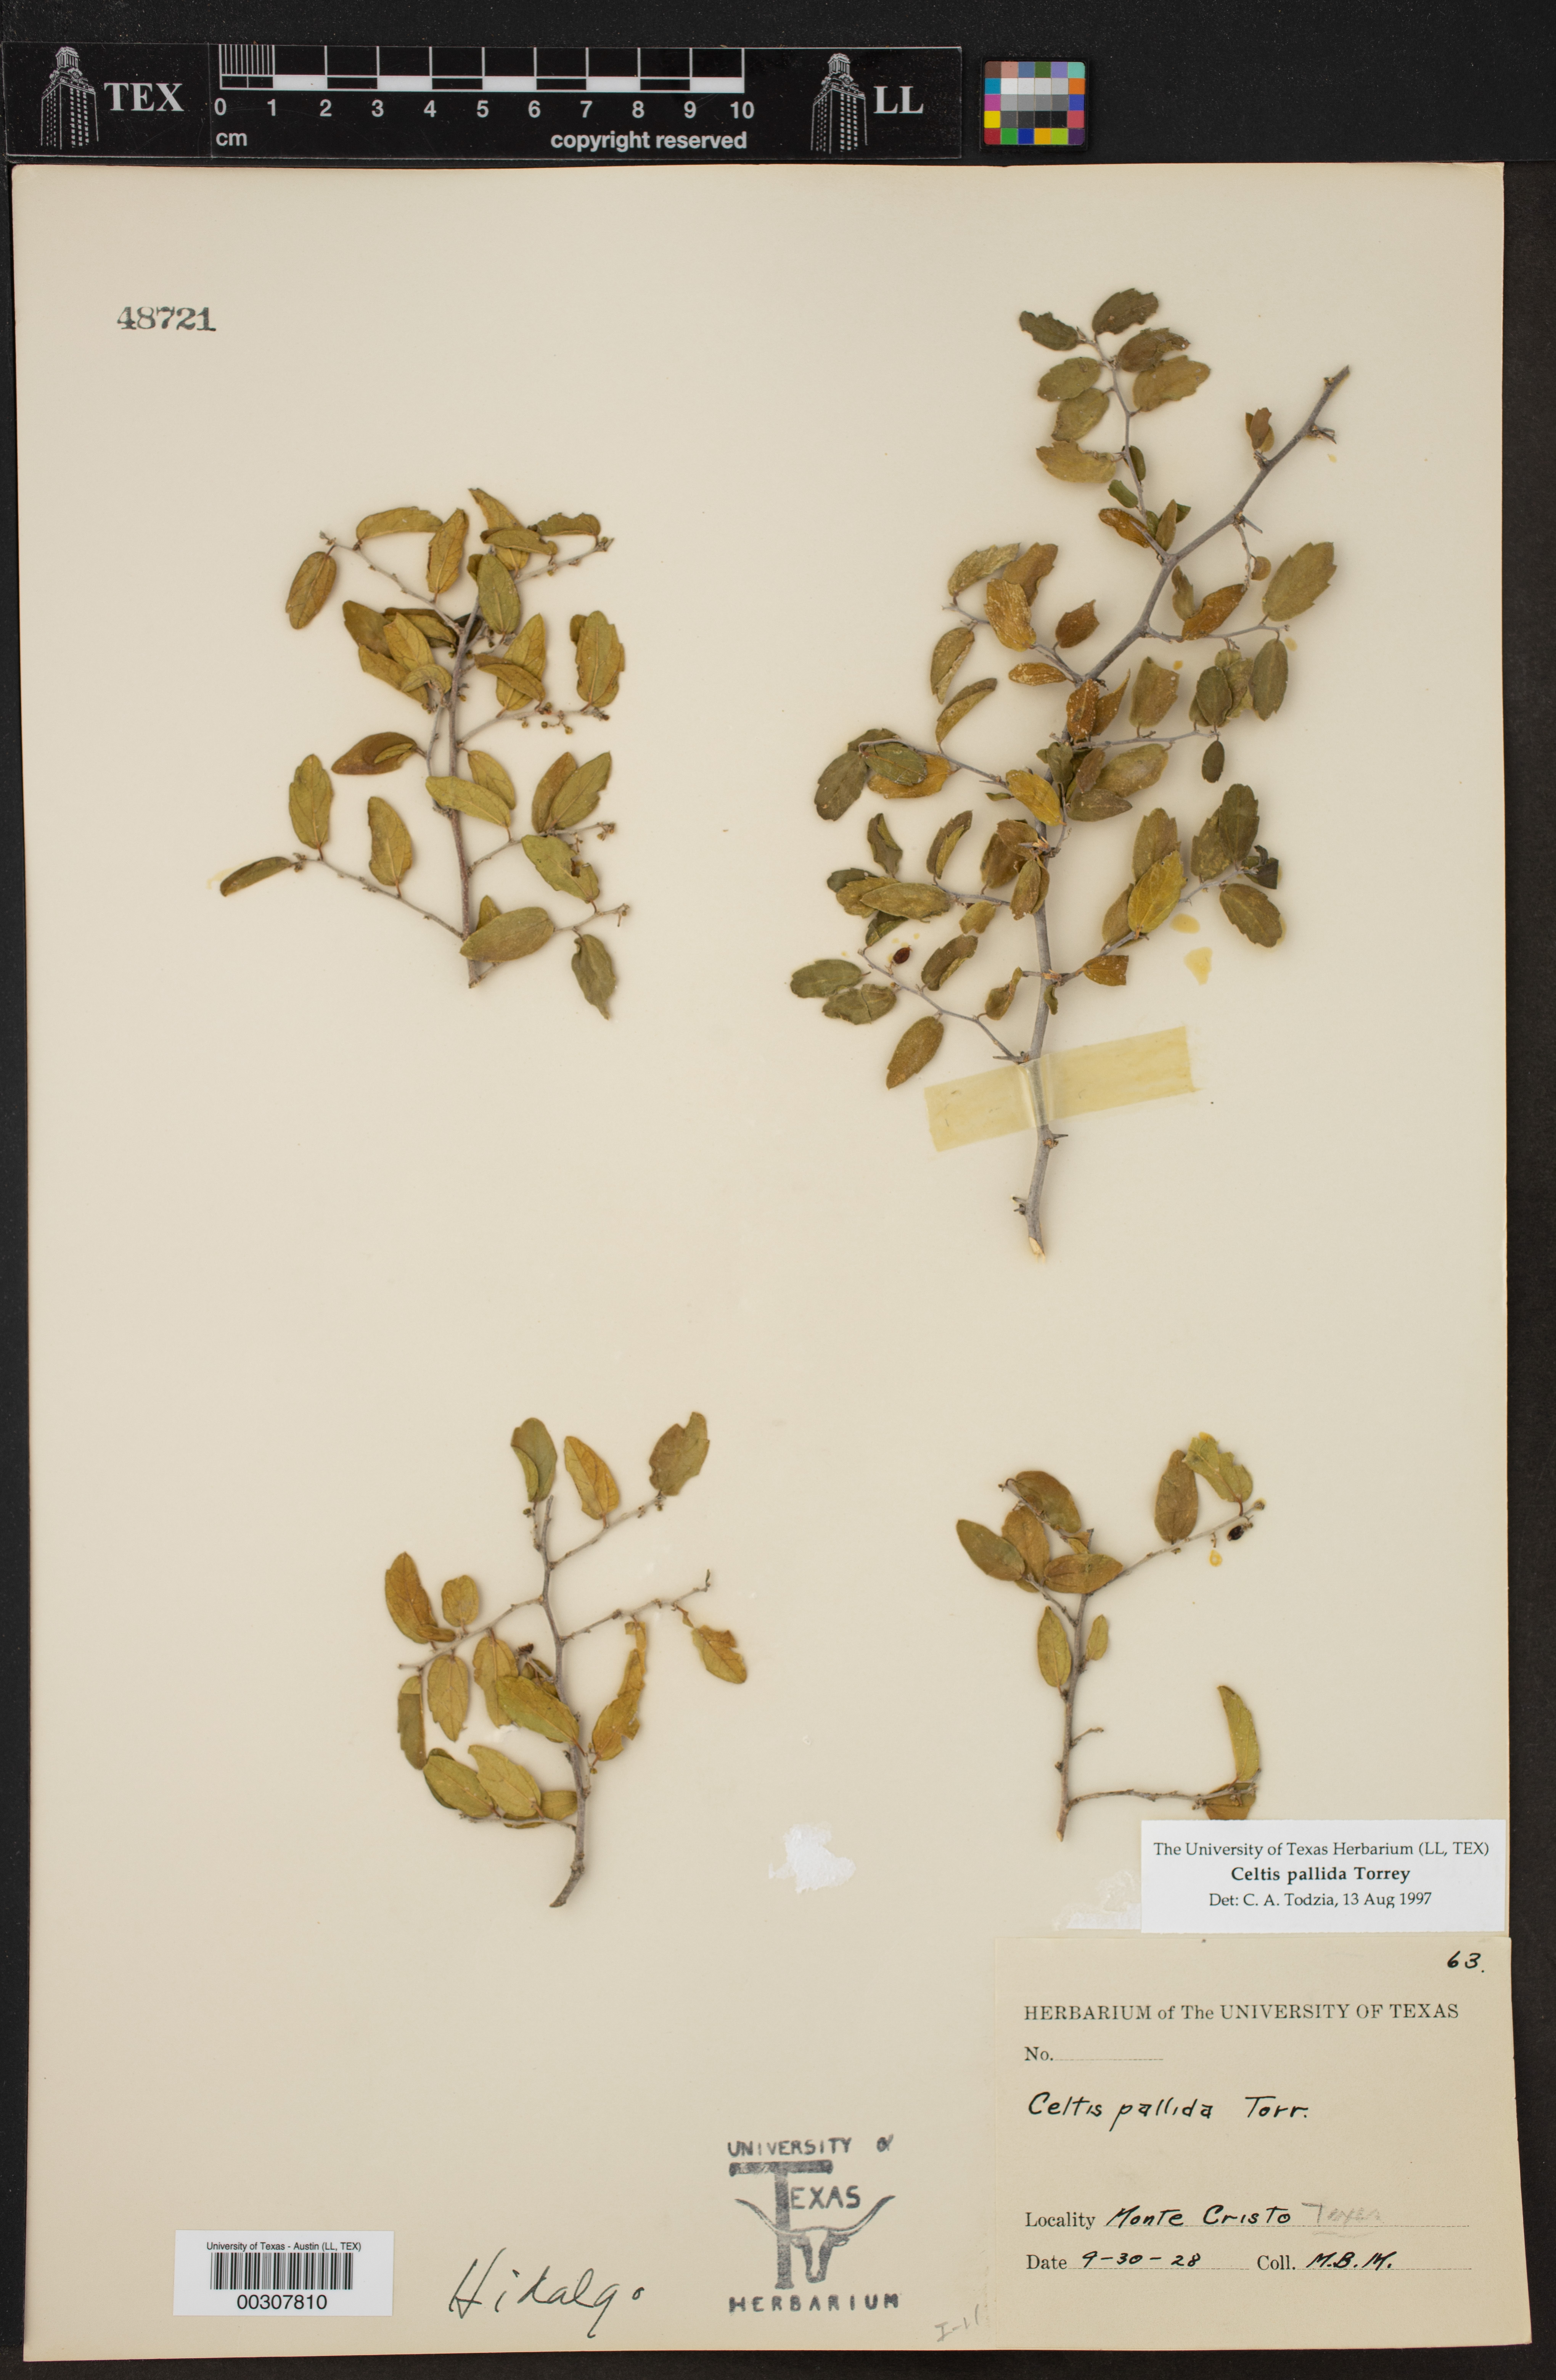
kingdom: Plantae
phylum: Tracheophyta
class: Magnoliopsida
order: Rosales
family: Cannabaceae
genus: Celtis
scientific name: Celtis iguanaea
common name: Iguana hackberry
